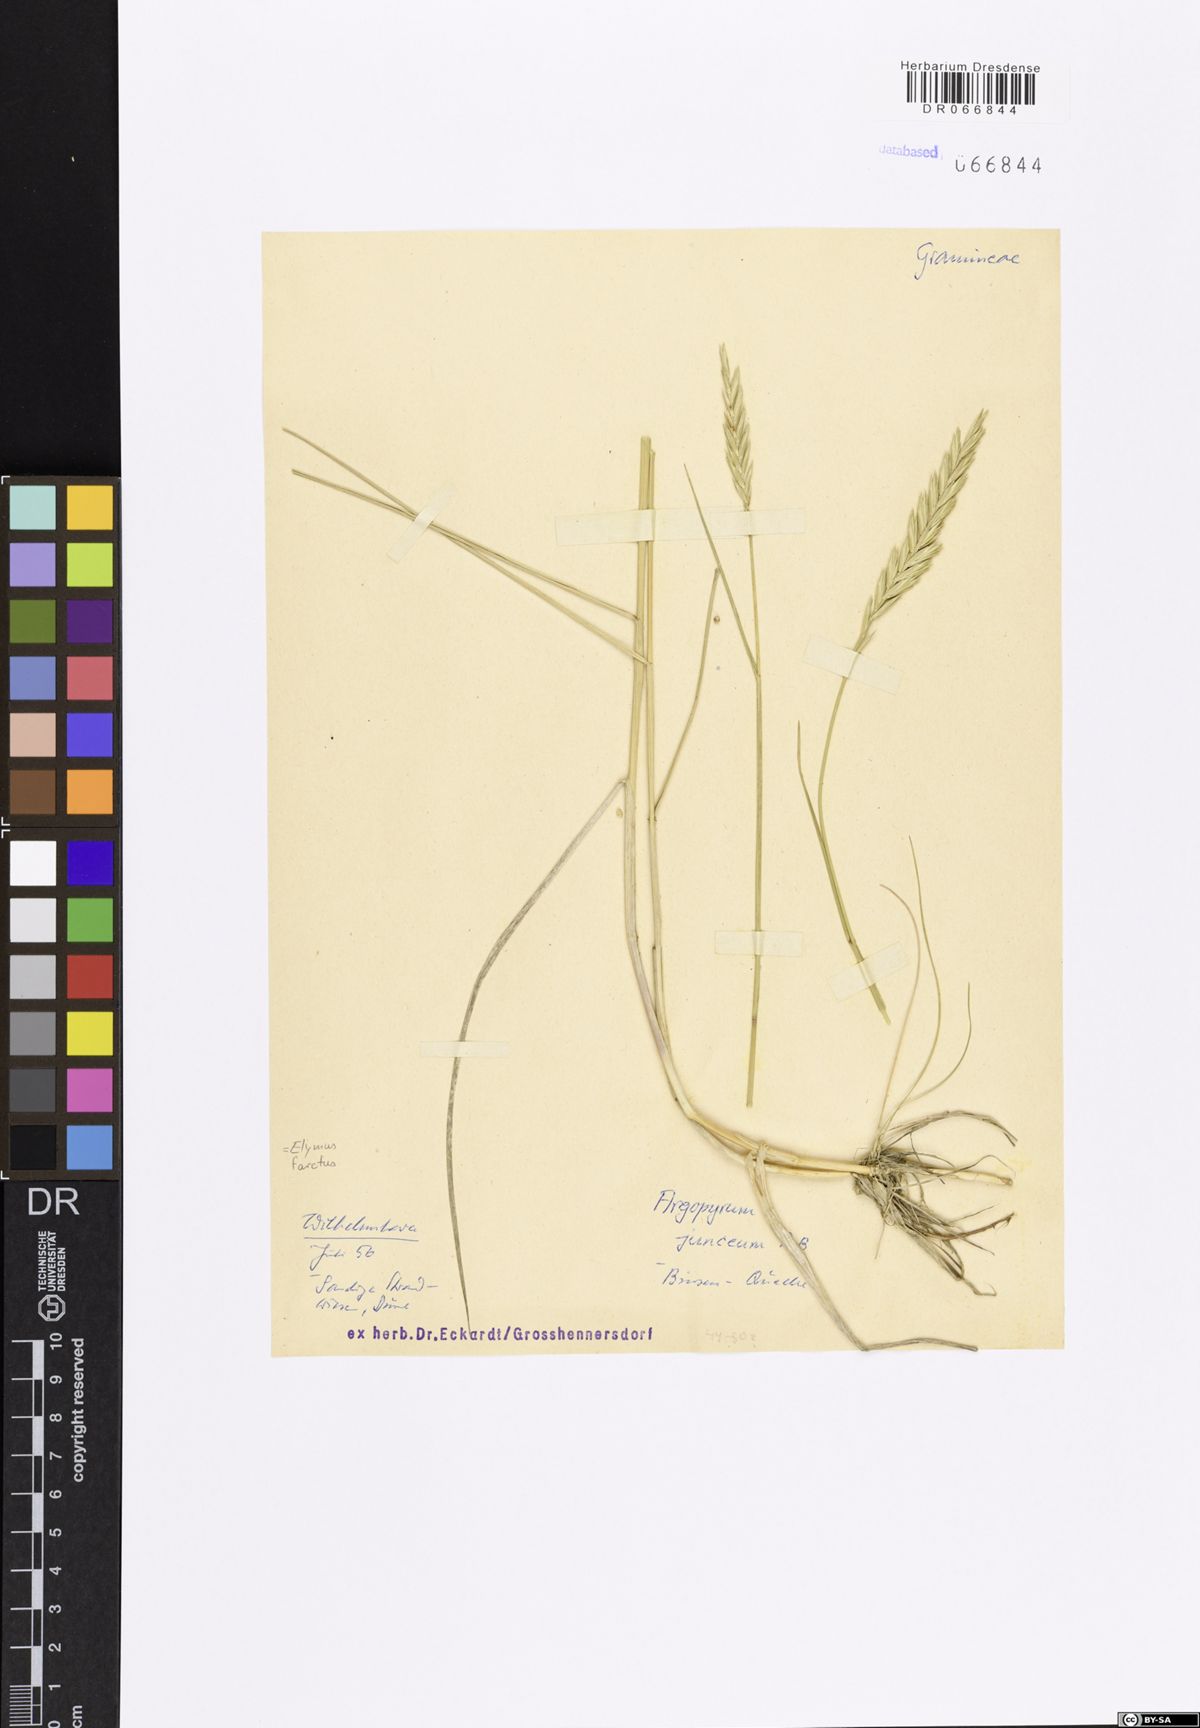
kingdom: Plantae
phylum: Tracheophyta
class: Liliopsida
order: Poales
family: Poaceae
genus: Thinopyrum
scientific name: Thinopyrum junceum
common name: Russian wheatgrass
